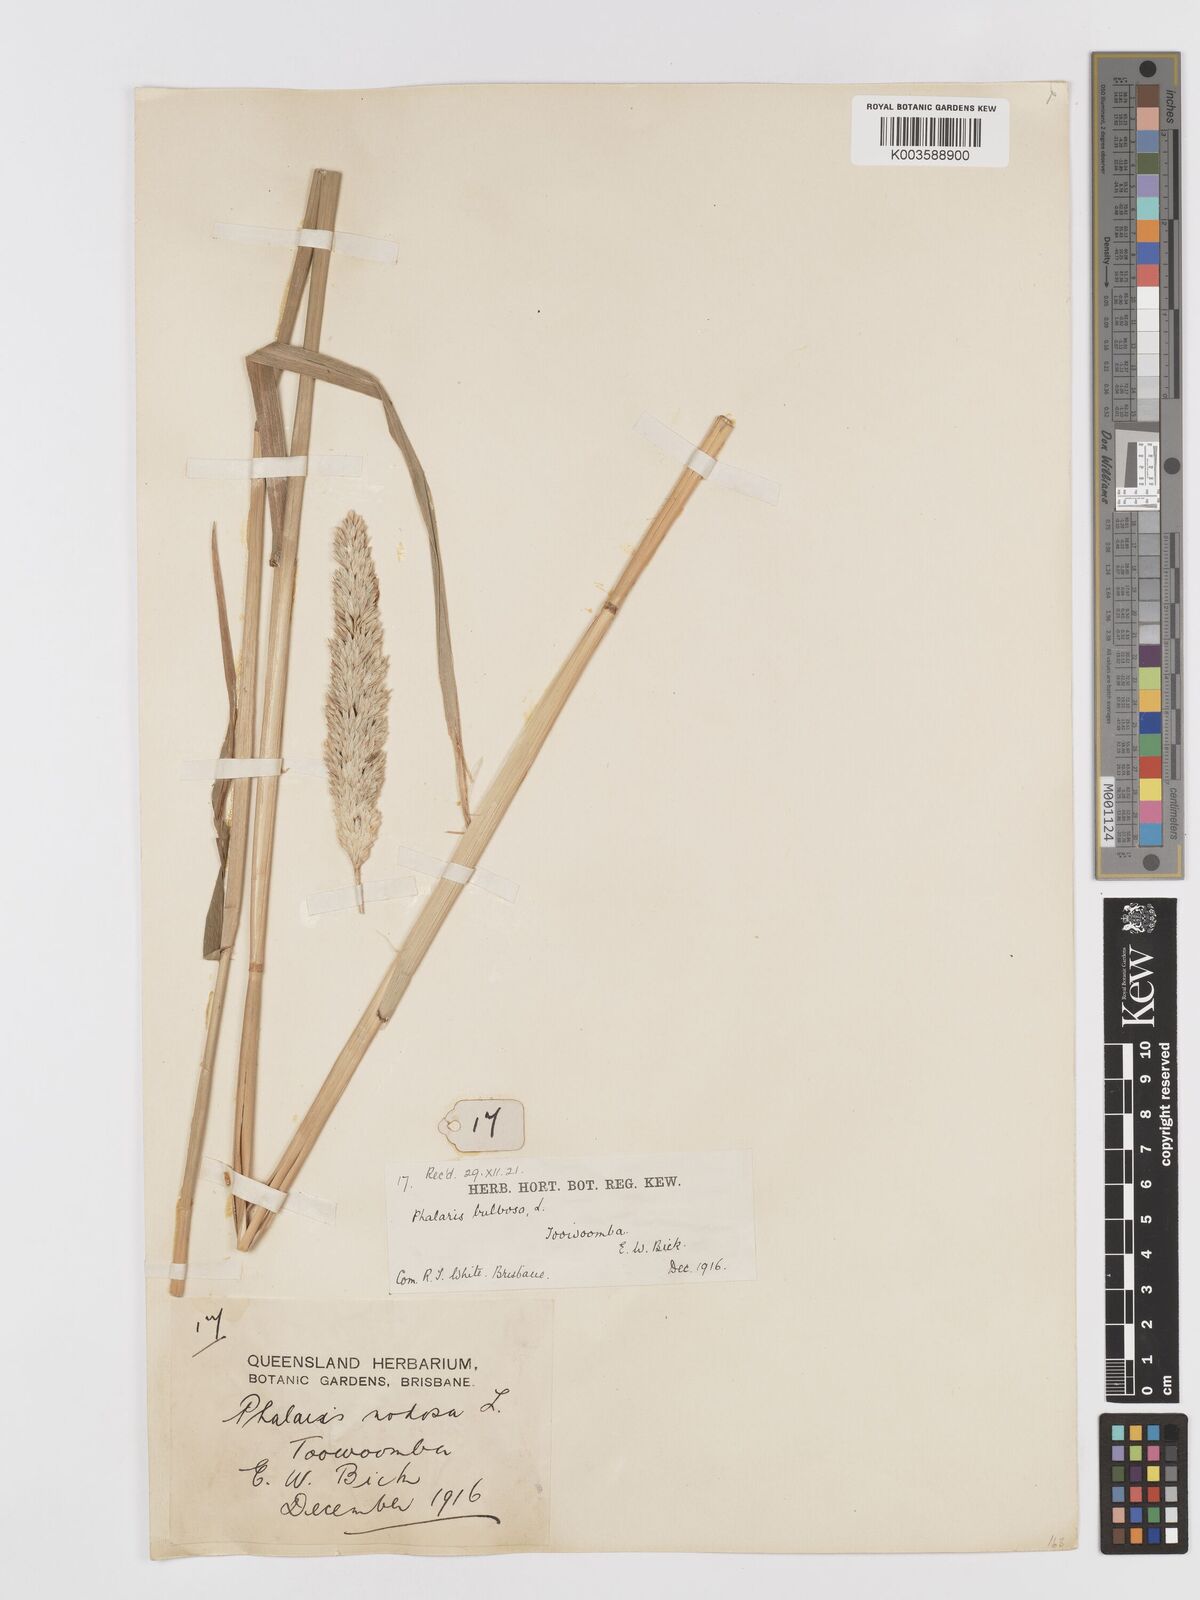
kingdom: Plantae
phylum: Tracheophyta
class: Liliopsida
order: Poales
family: Poaceae
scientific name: Poaceae
